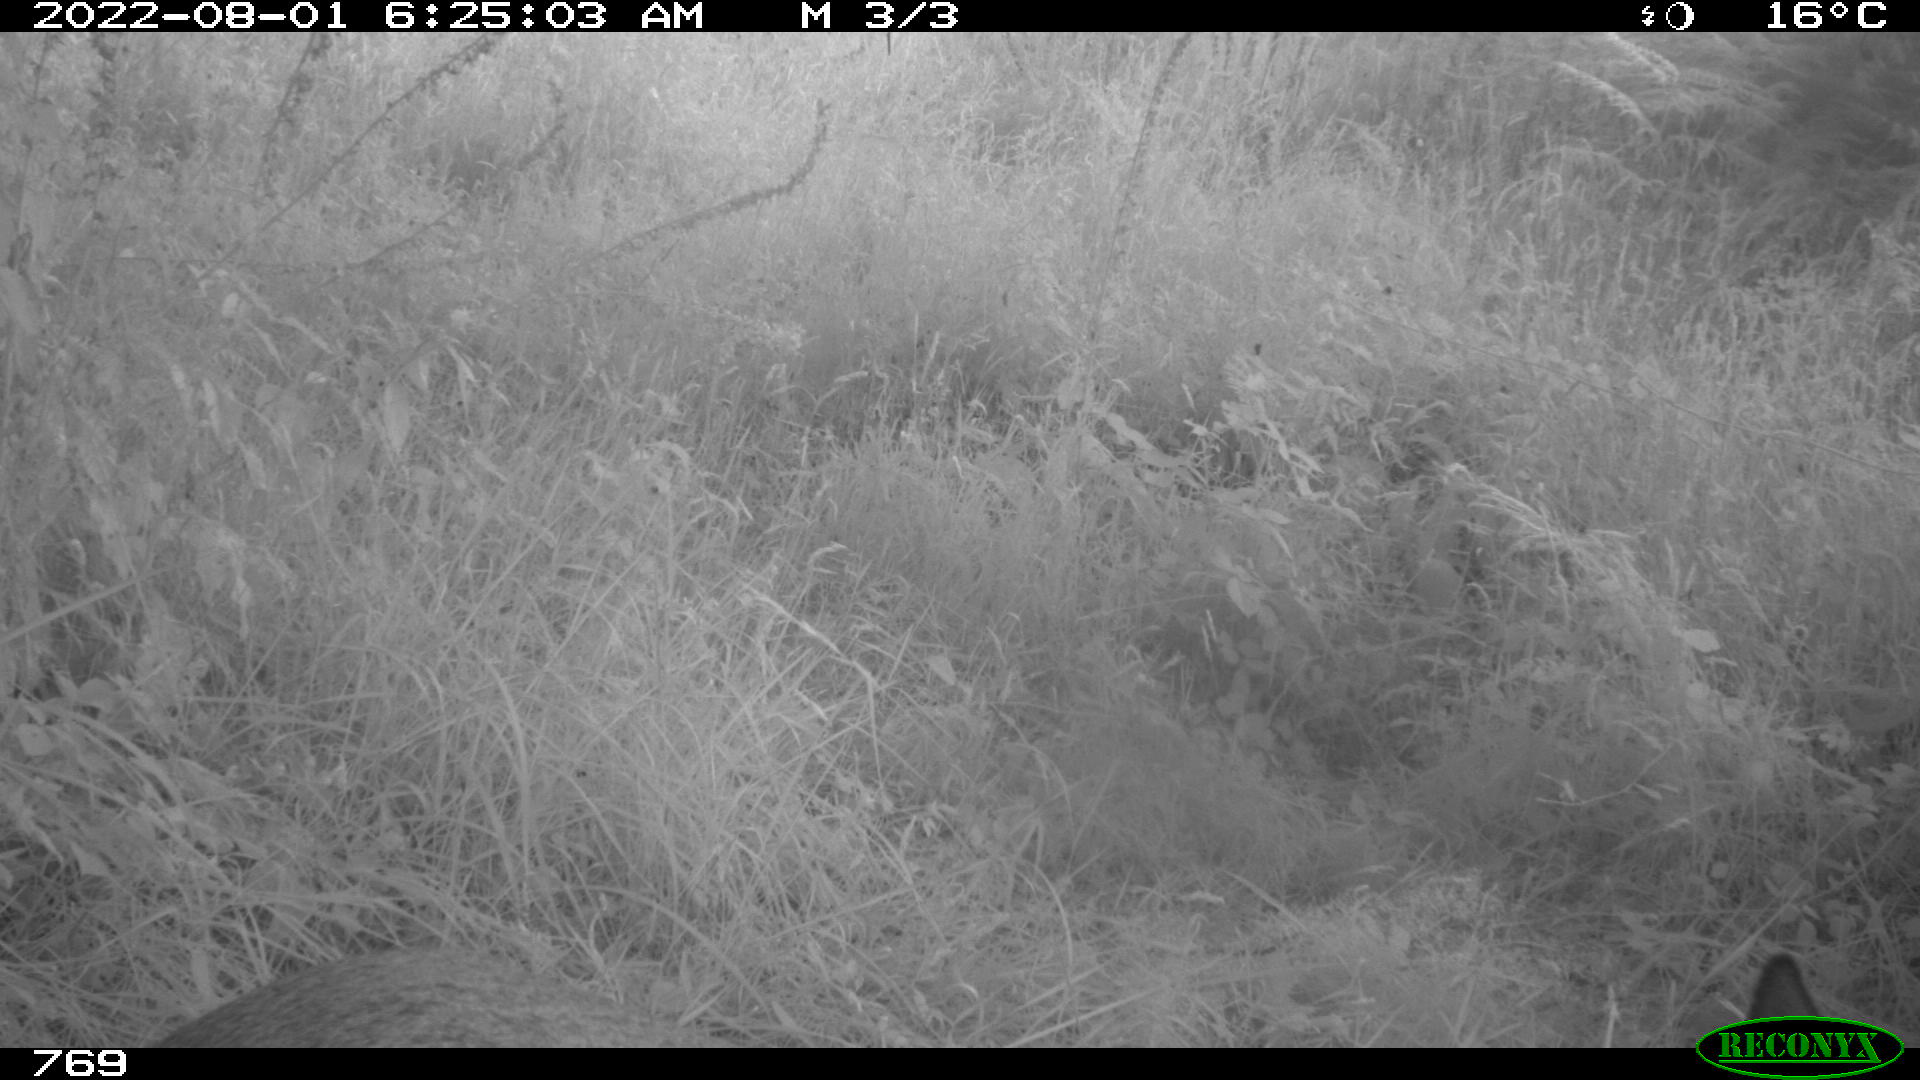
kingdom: Animalia
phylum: Chordata
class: Mammalia
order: Artiodactyla
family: Cervidae
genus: Capreolus
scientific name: Capreolus capreolus
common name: Western roe deer
